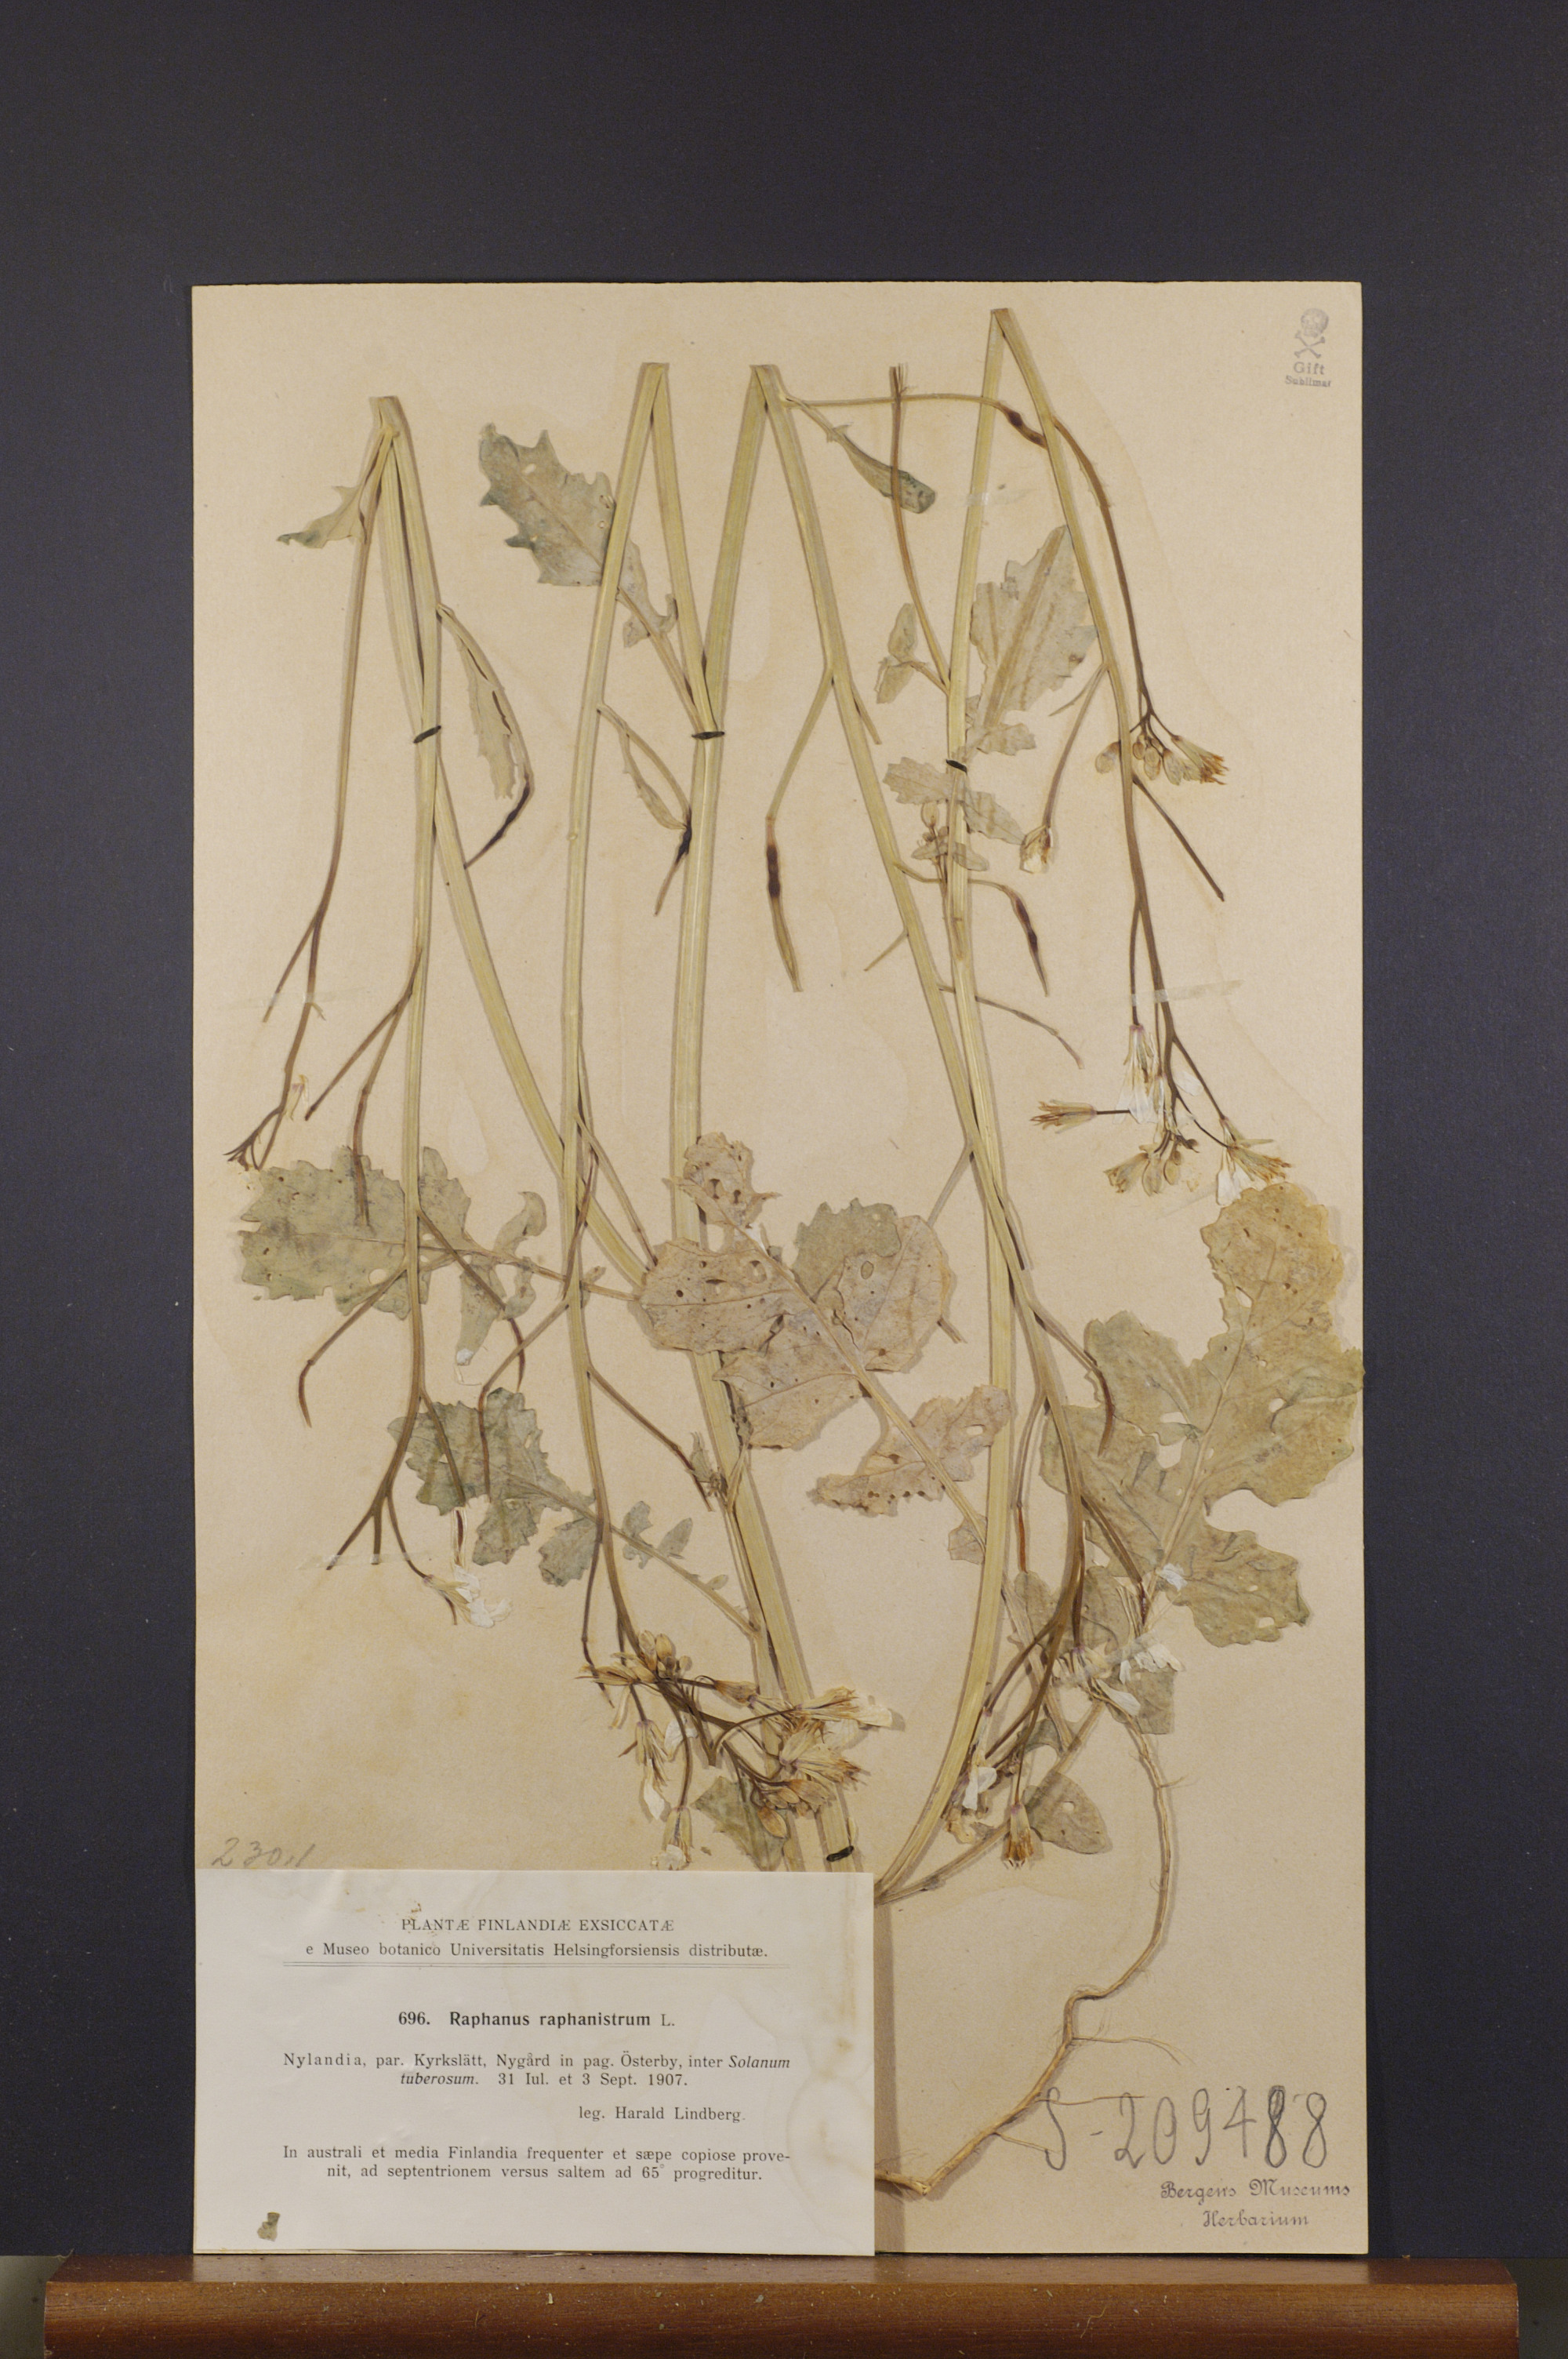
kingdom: Plantae
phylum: Tracheophyta
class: Magnoliopsida
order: Brassicales
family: Brassicaceae
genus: Raphanus
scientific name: Raphanus raphanistrum
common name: Wild radish
